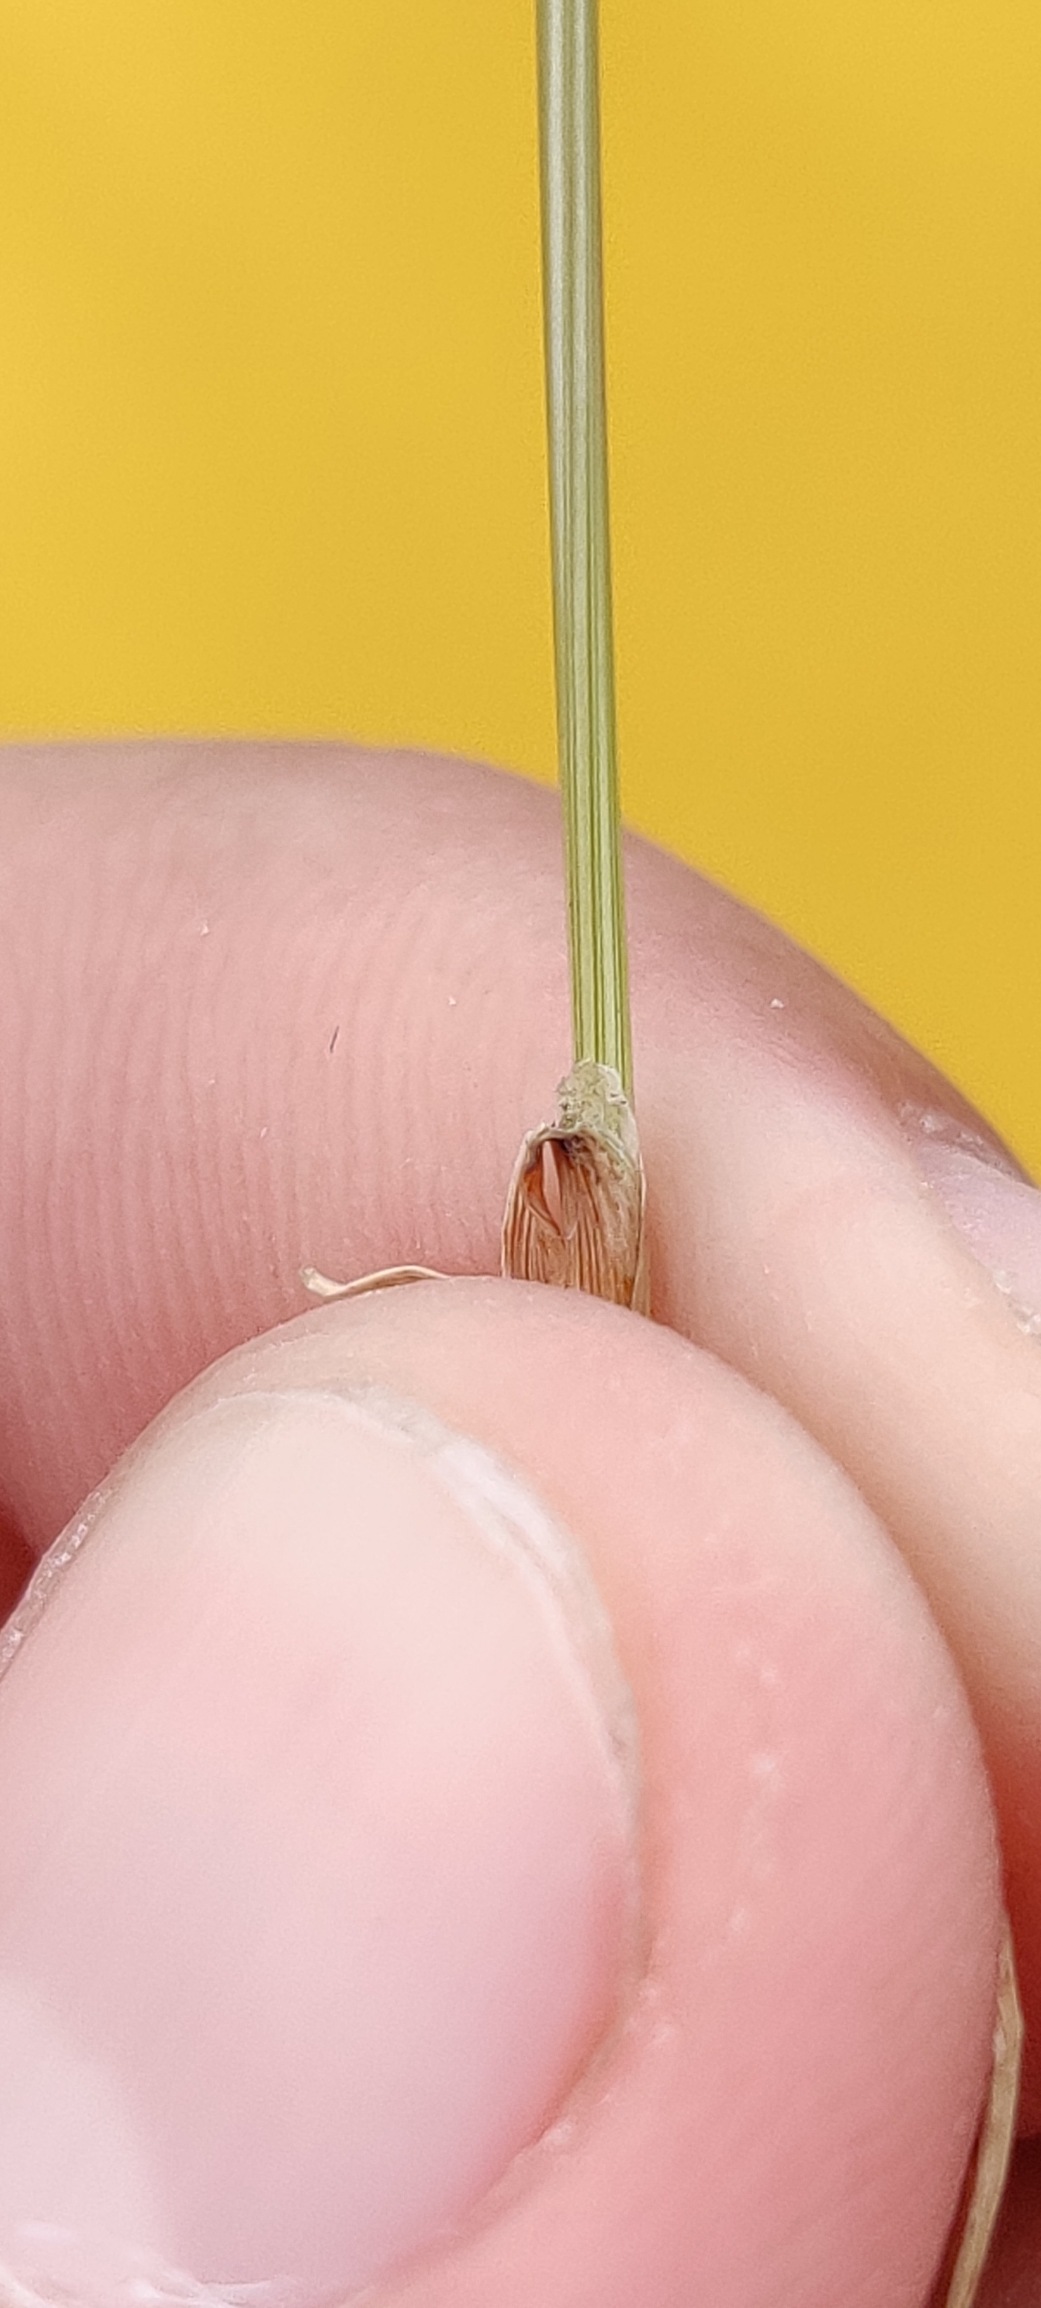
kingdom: Plantae
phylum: Tracheophyta
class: Liliopsida
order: Poales
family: Poaceae
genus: Cynosurus
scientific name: Cynosurus cristatus
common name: Kamgræs
